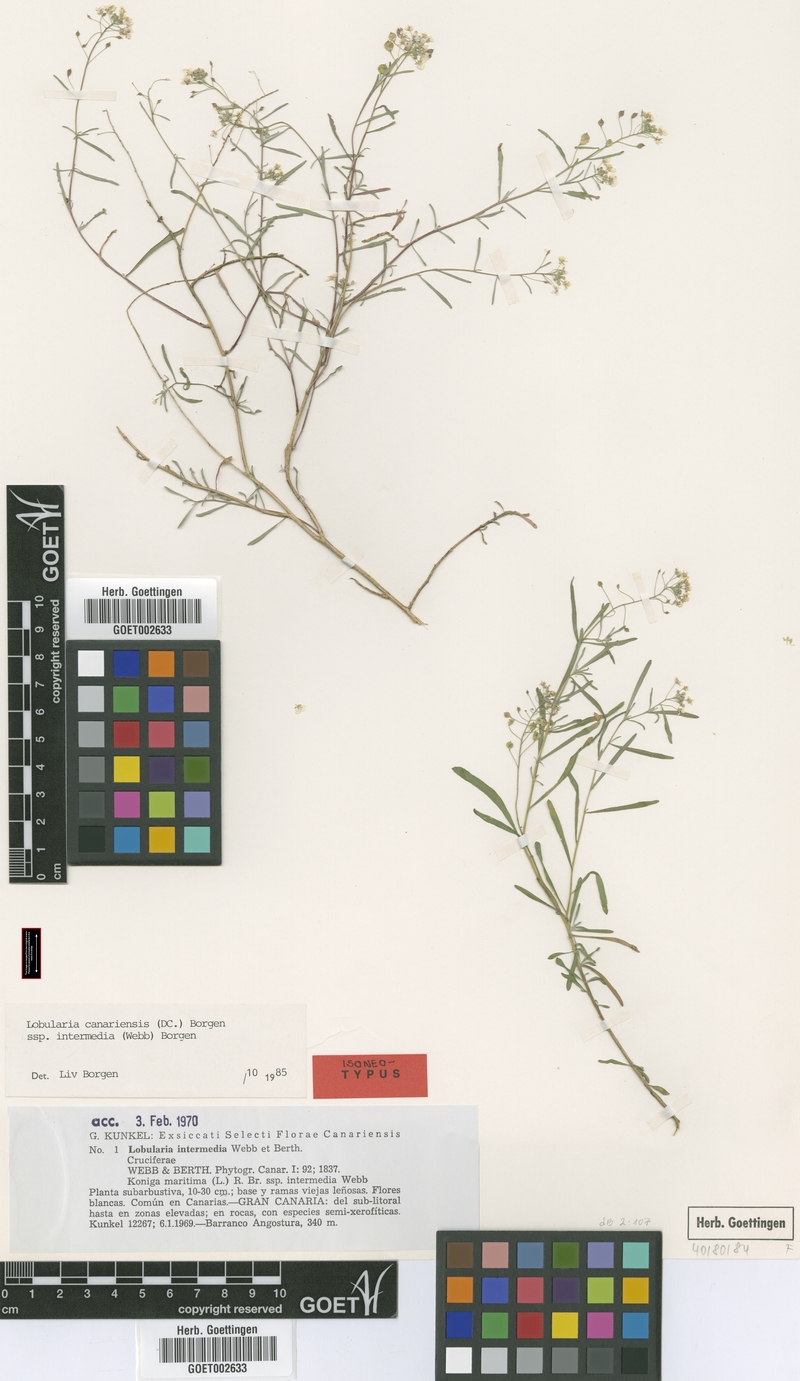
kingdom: Plantae
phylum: Tracheophyta
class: Magnoliopsida
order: Brassicales
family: Brassicaceae
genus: Lobularia
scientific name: Lobularia canariensis
